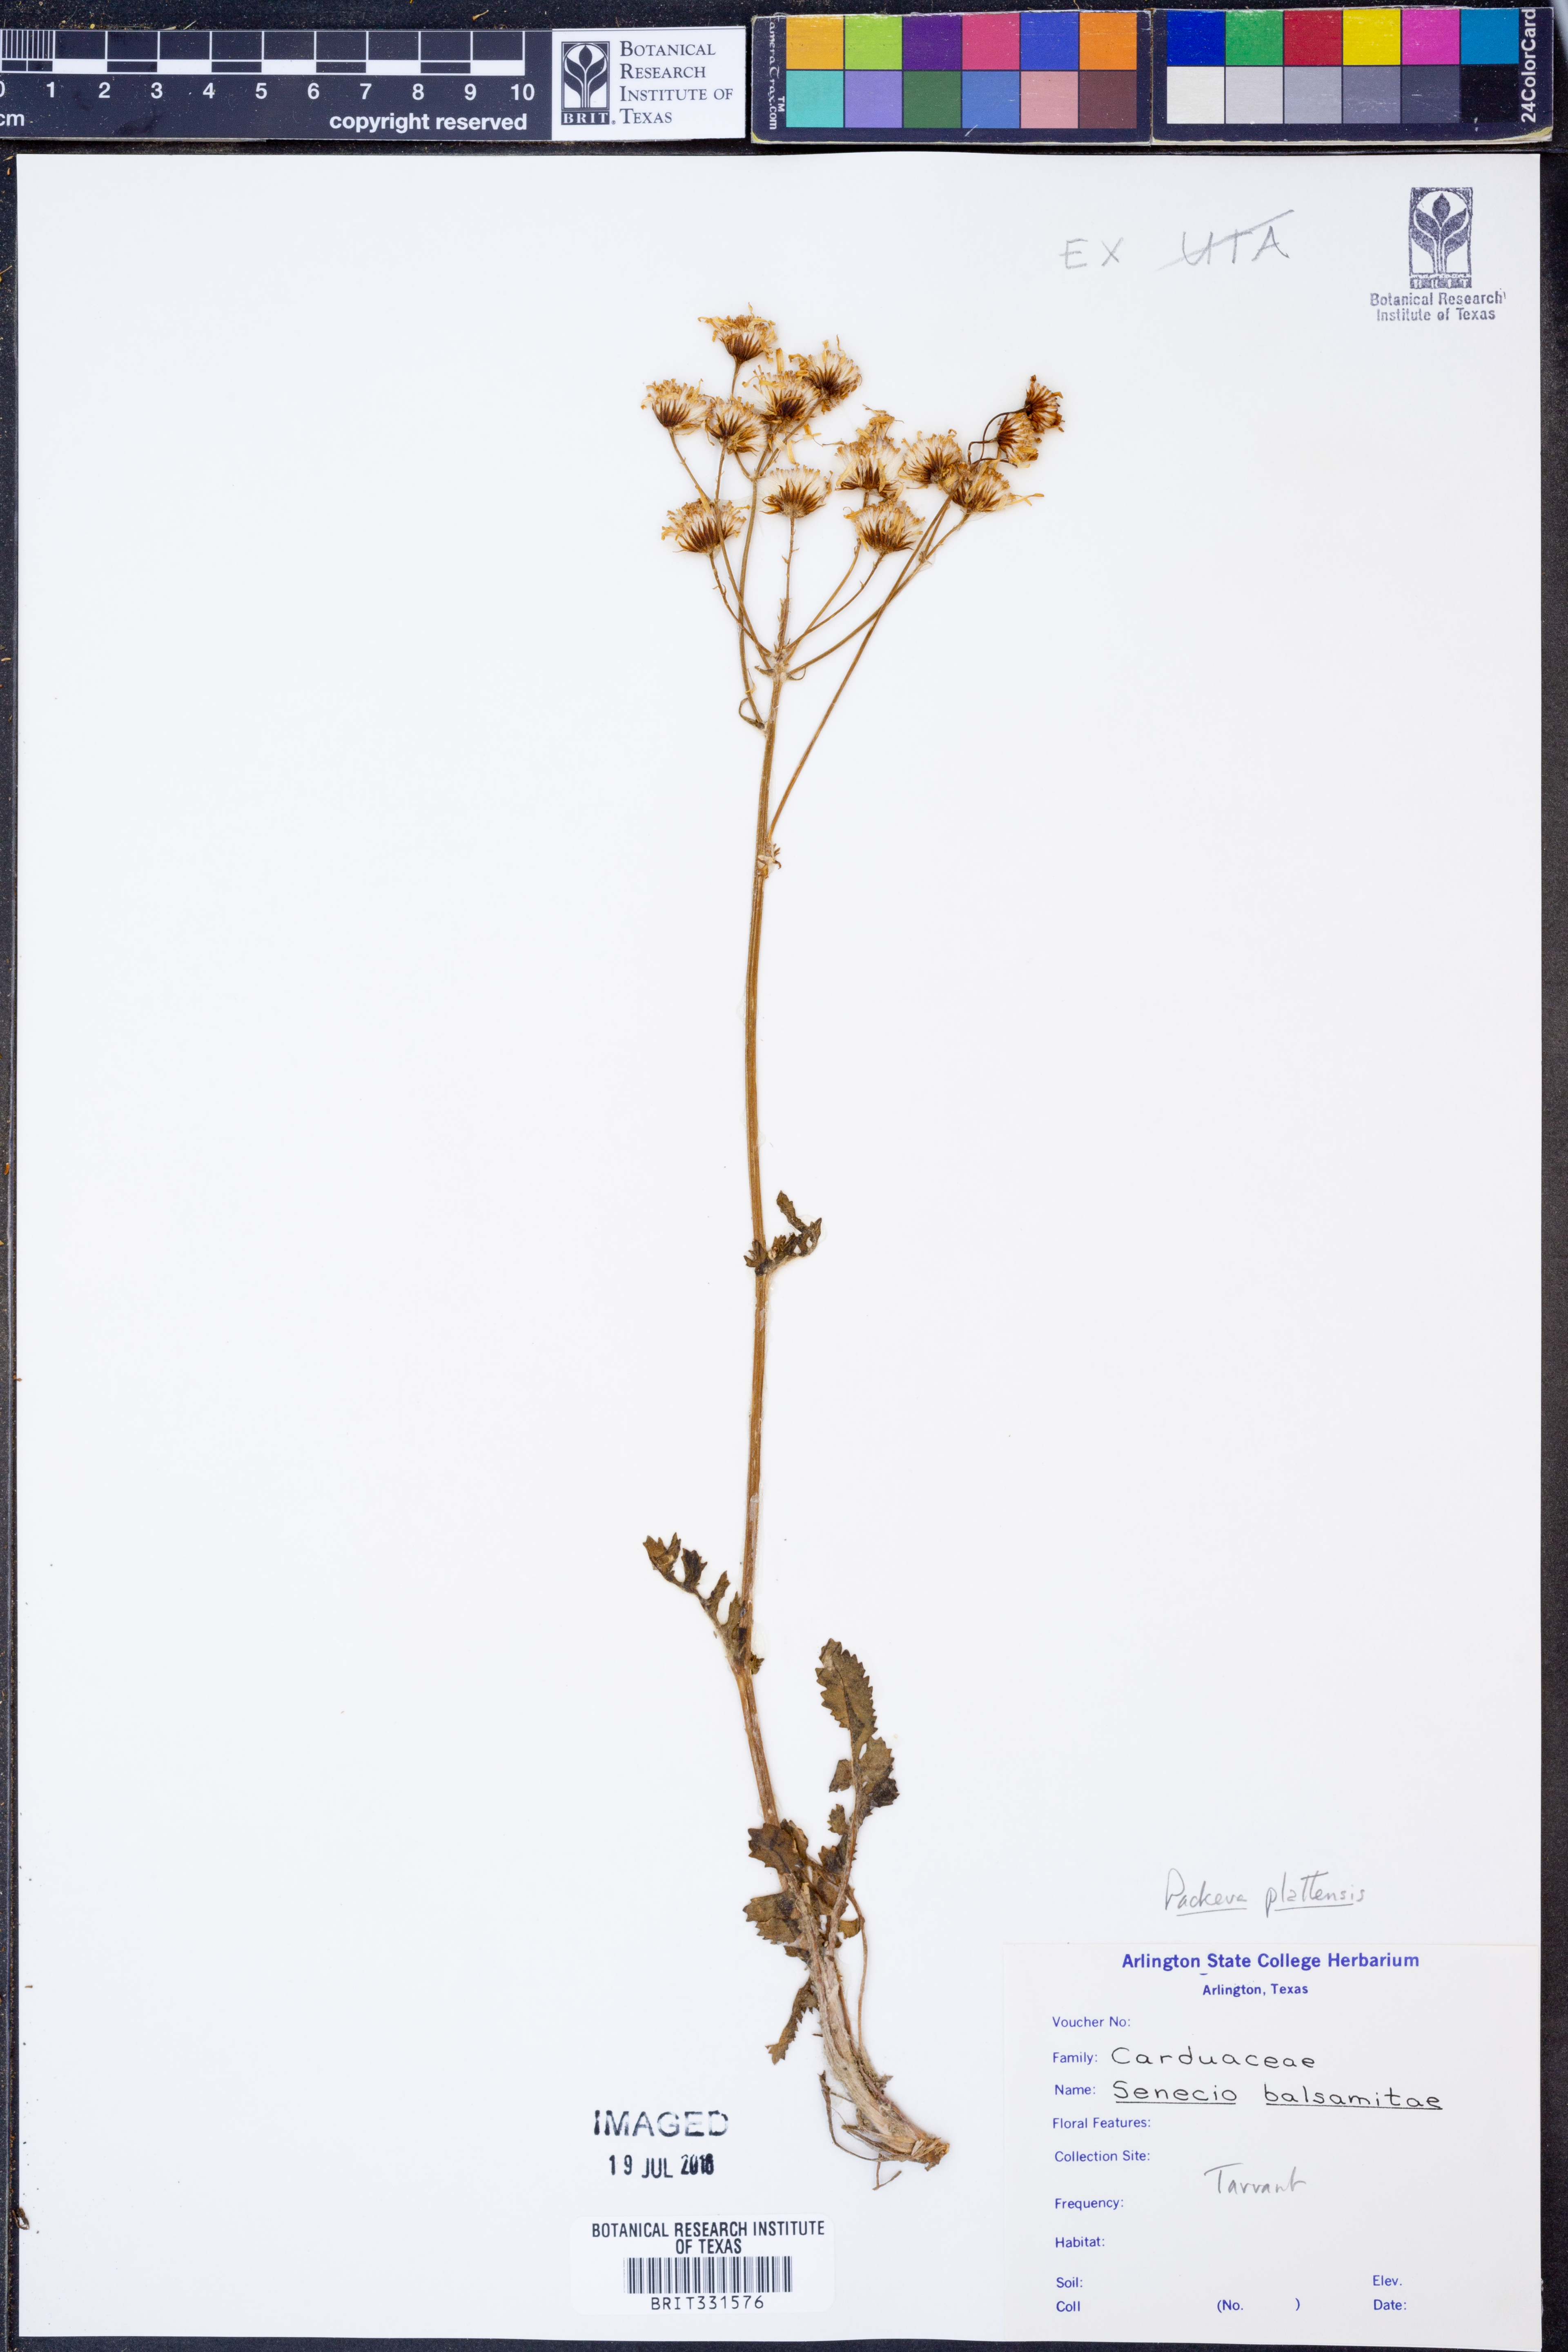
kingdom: Plantae
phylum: Tracheophyta
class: Magnoliopsida
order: Asterales
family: Asteraceae
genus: Packera
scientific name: Packera plattensis
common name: Prairie groundsel
